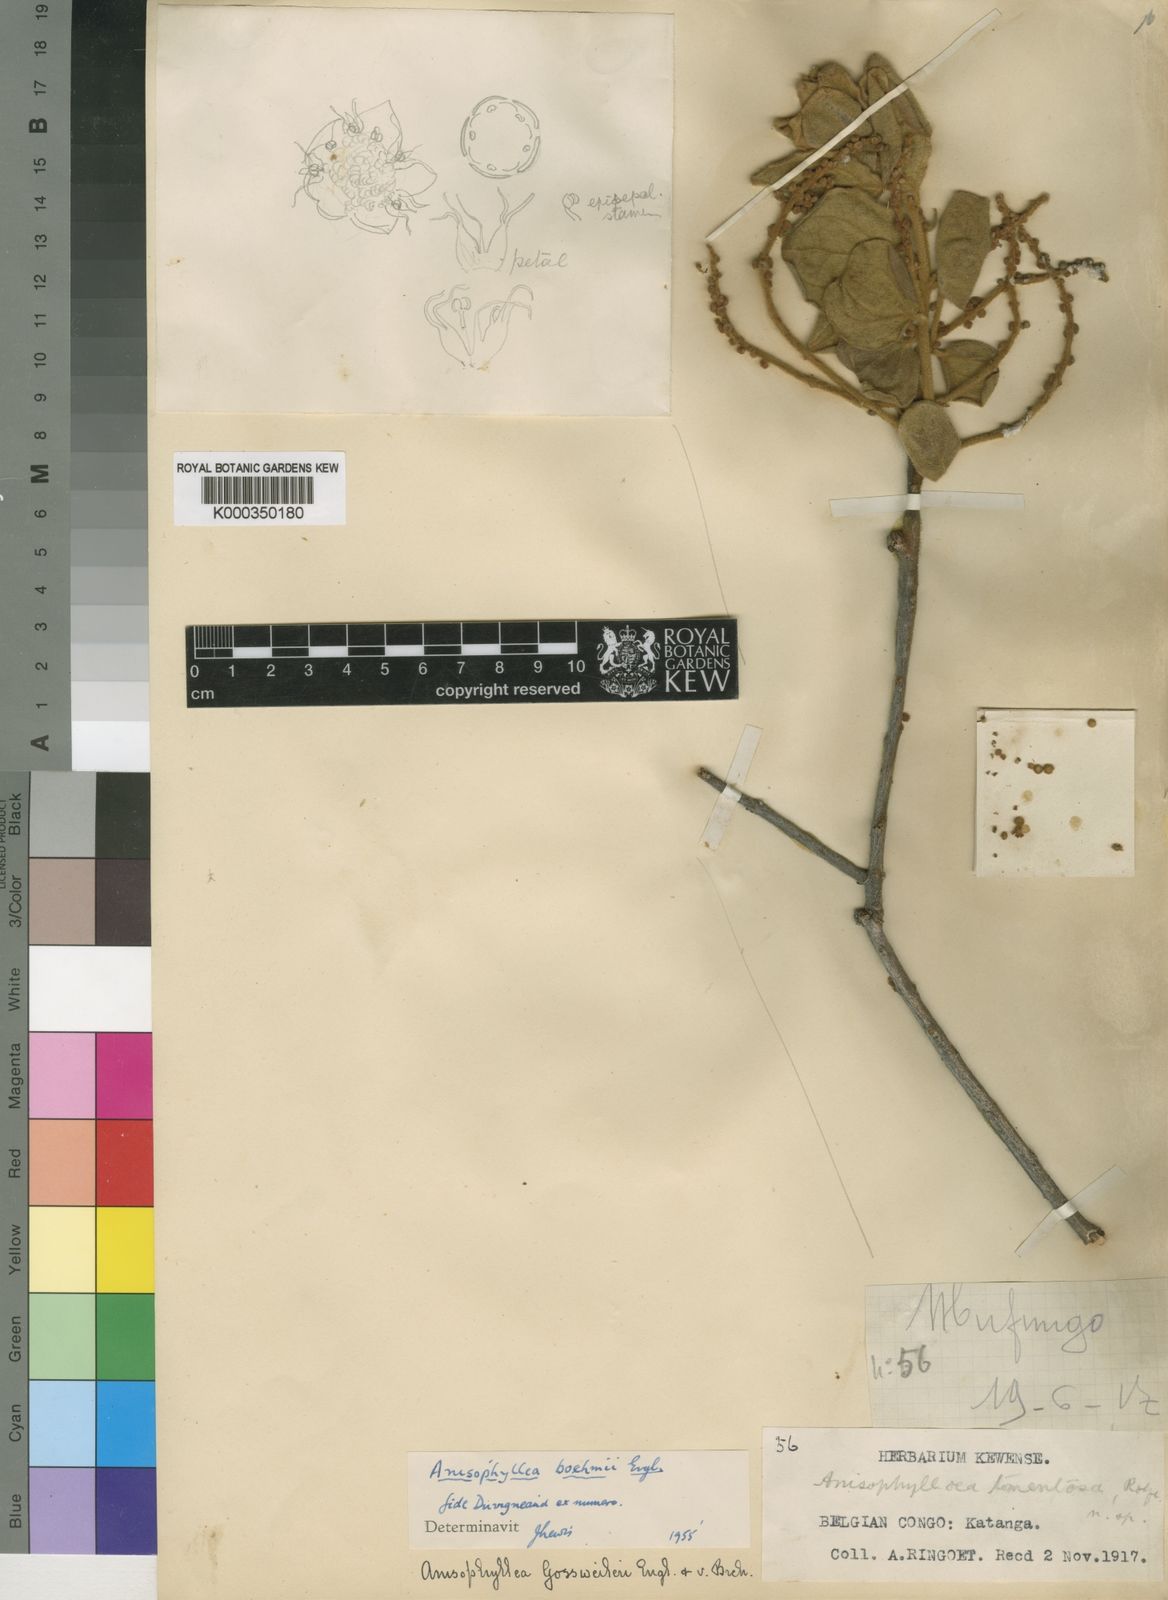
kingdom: Plantae
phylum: Tracheophyta
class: Magnoliopsida
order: Cucurbitales
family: Anisophylleaceae
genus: Anisophyllea
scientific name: Anisophyllea boehmii
